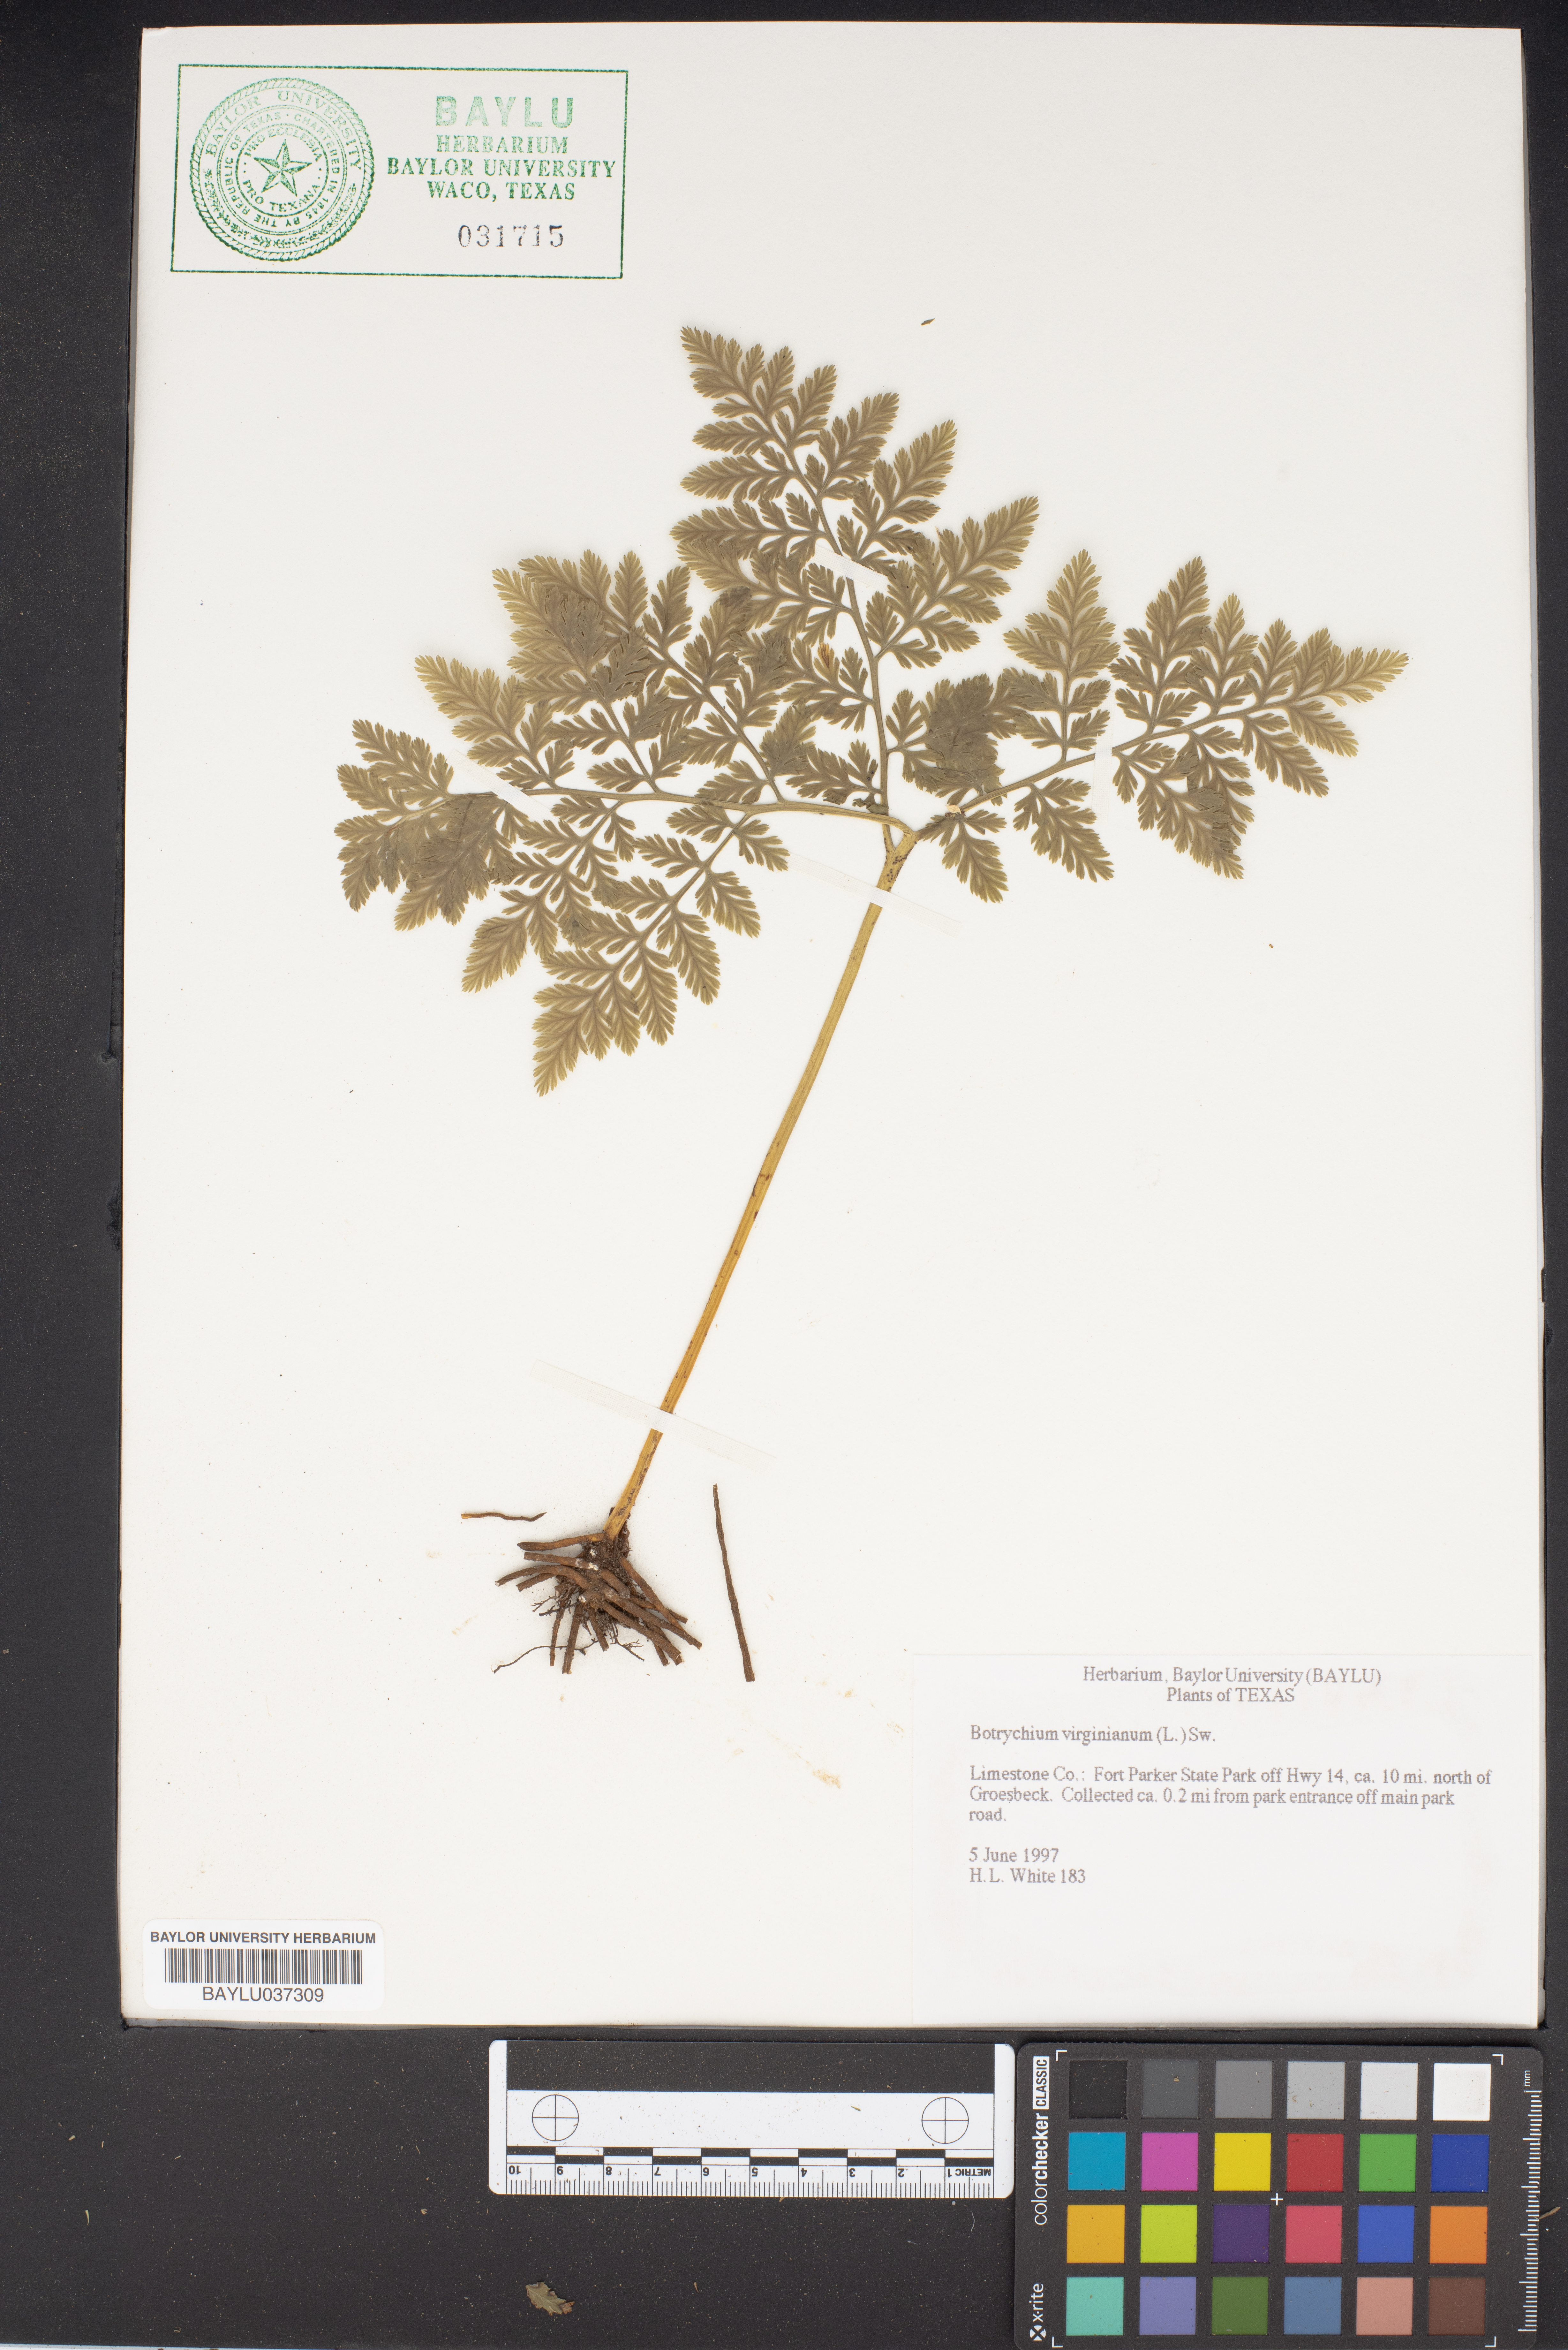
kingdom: Plantae
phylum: Tracheophyta
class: Polypodiopsida
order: Ophioglossales
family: Ophioglossaceae
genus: Botrypus
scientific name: Botrypus virginianus
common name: Common grapefern
